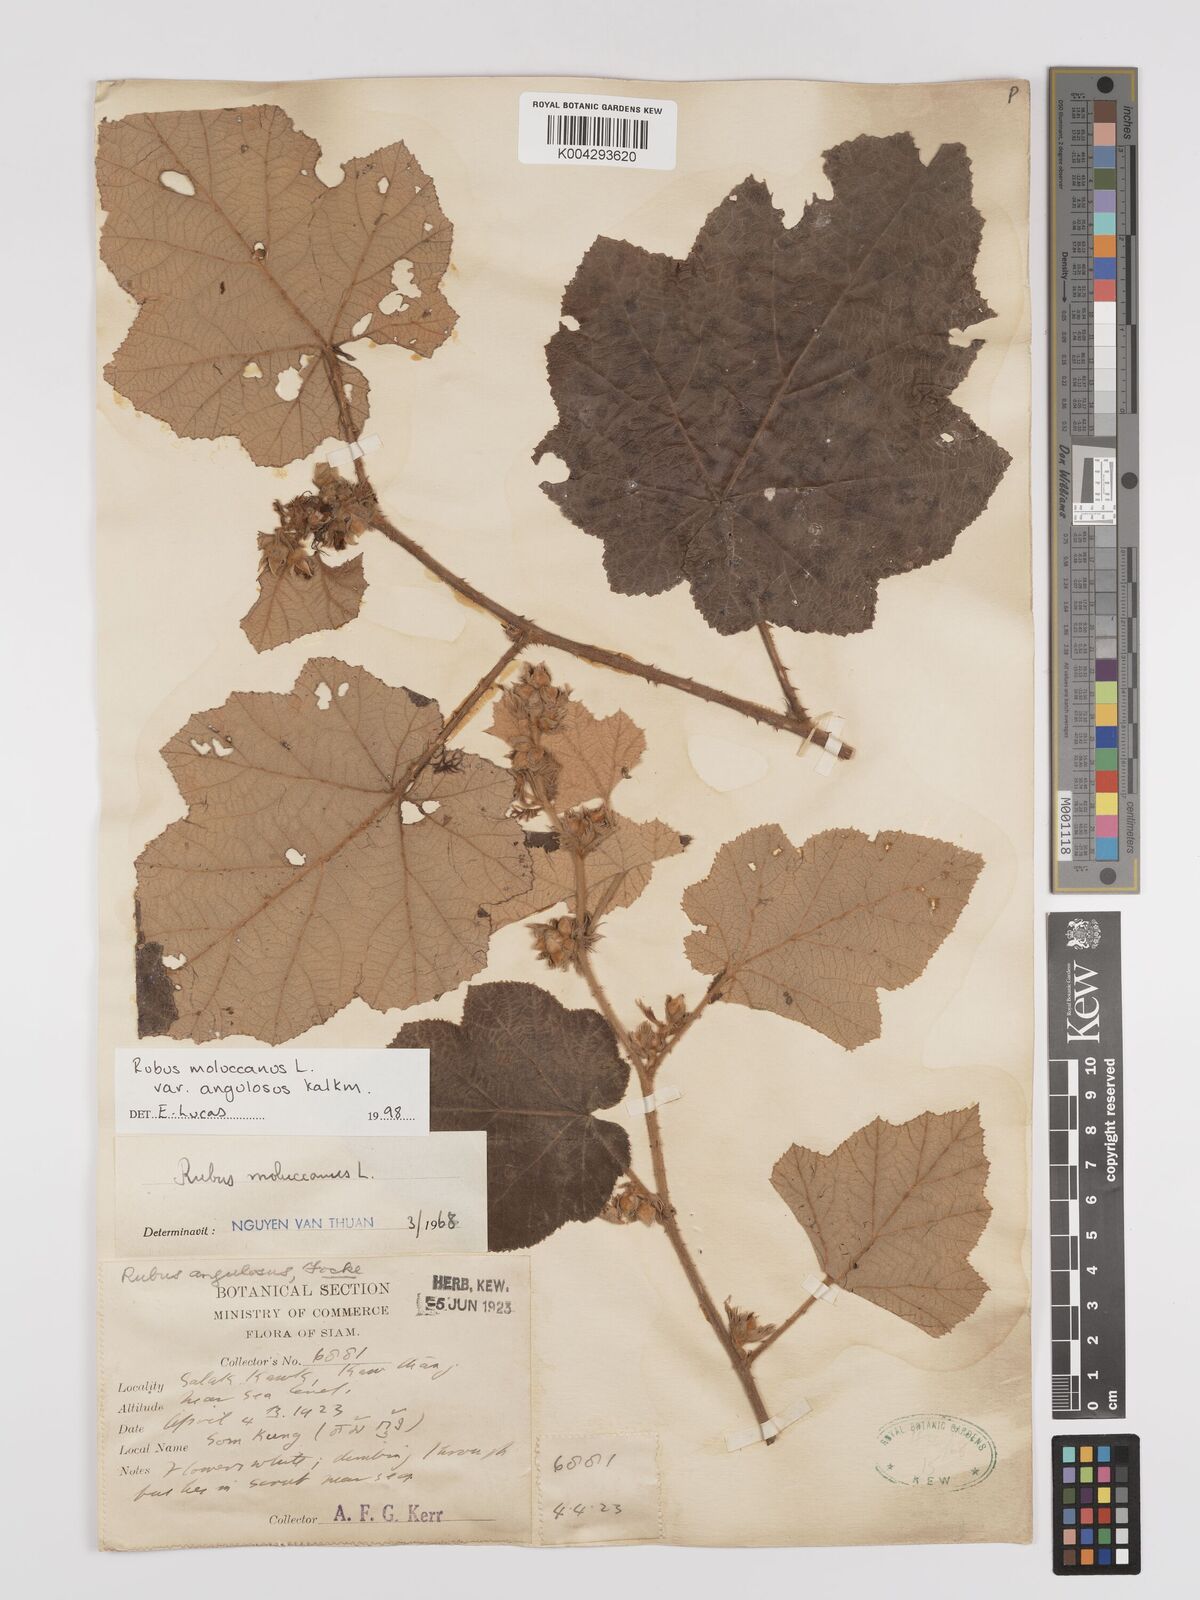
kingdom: Plantae
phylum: Tracheophyta
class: Magnoliopsida
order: Rosales
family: Rosaceae
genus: Rubus
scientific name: Rubus moluccanus
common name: Wild raspberry
